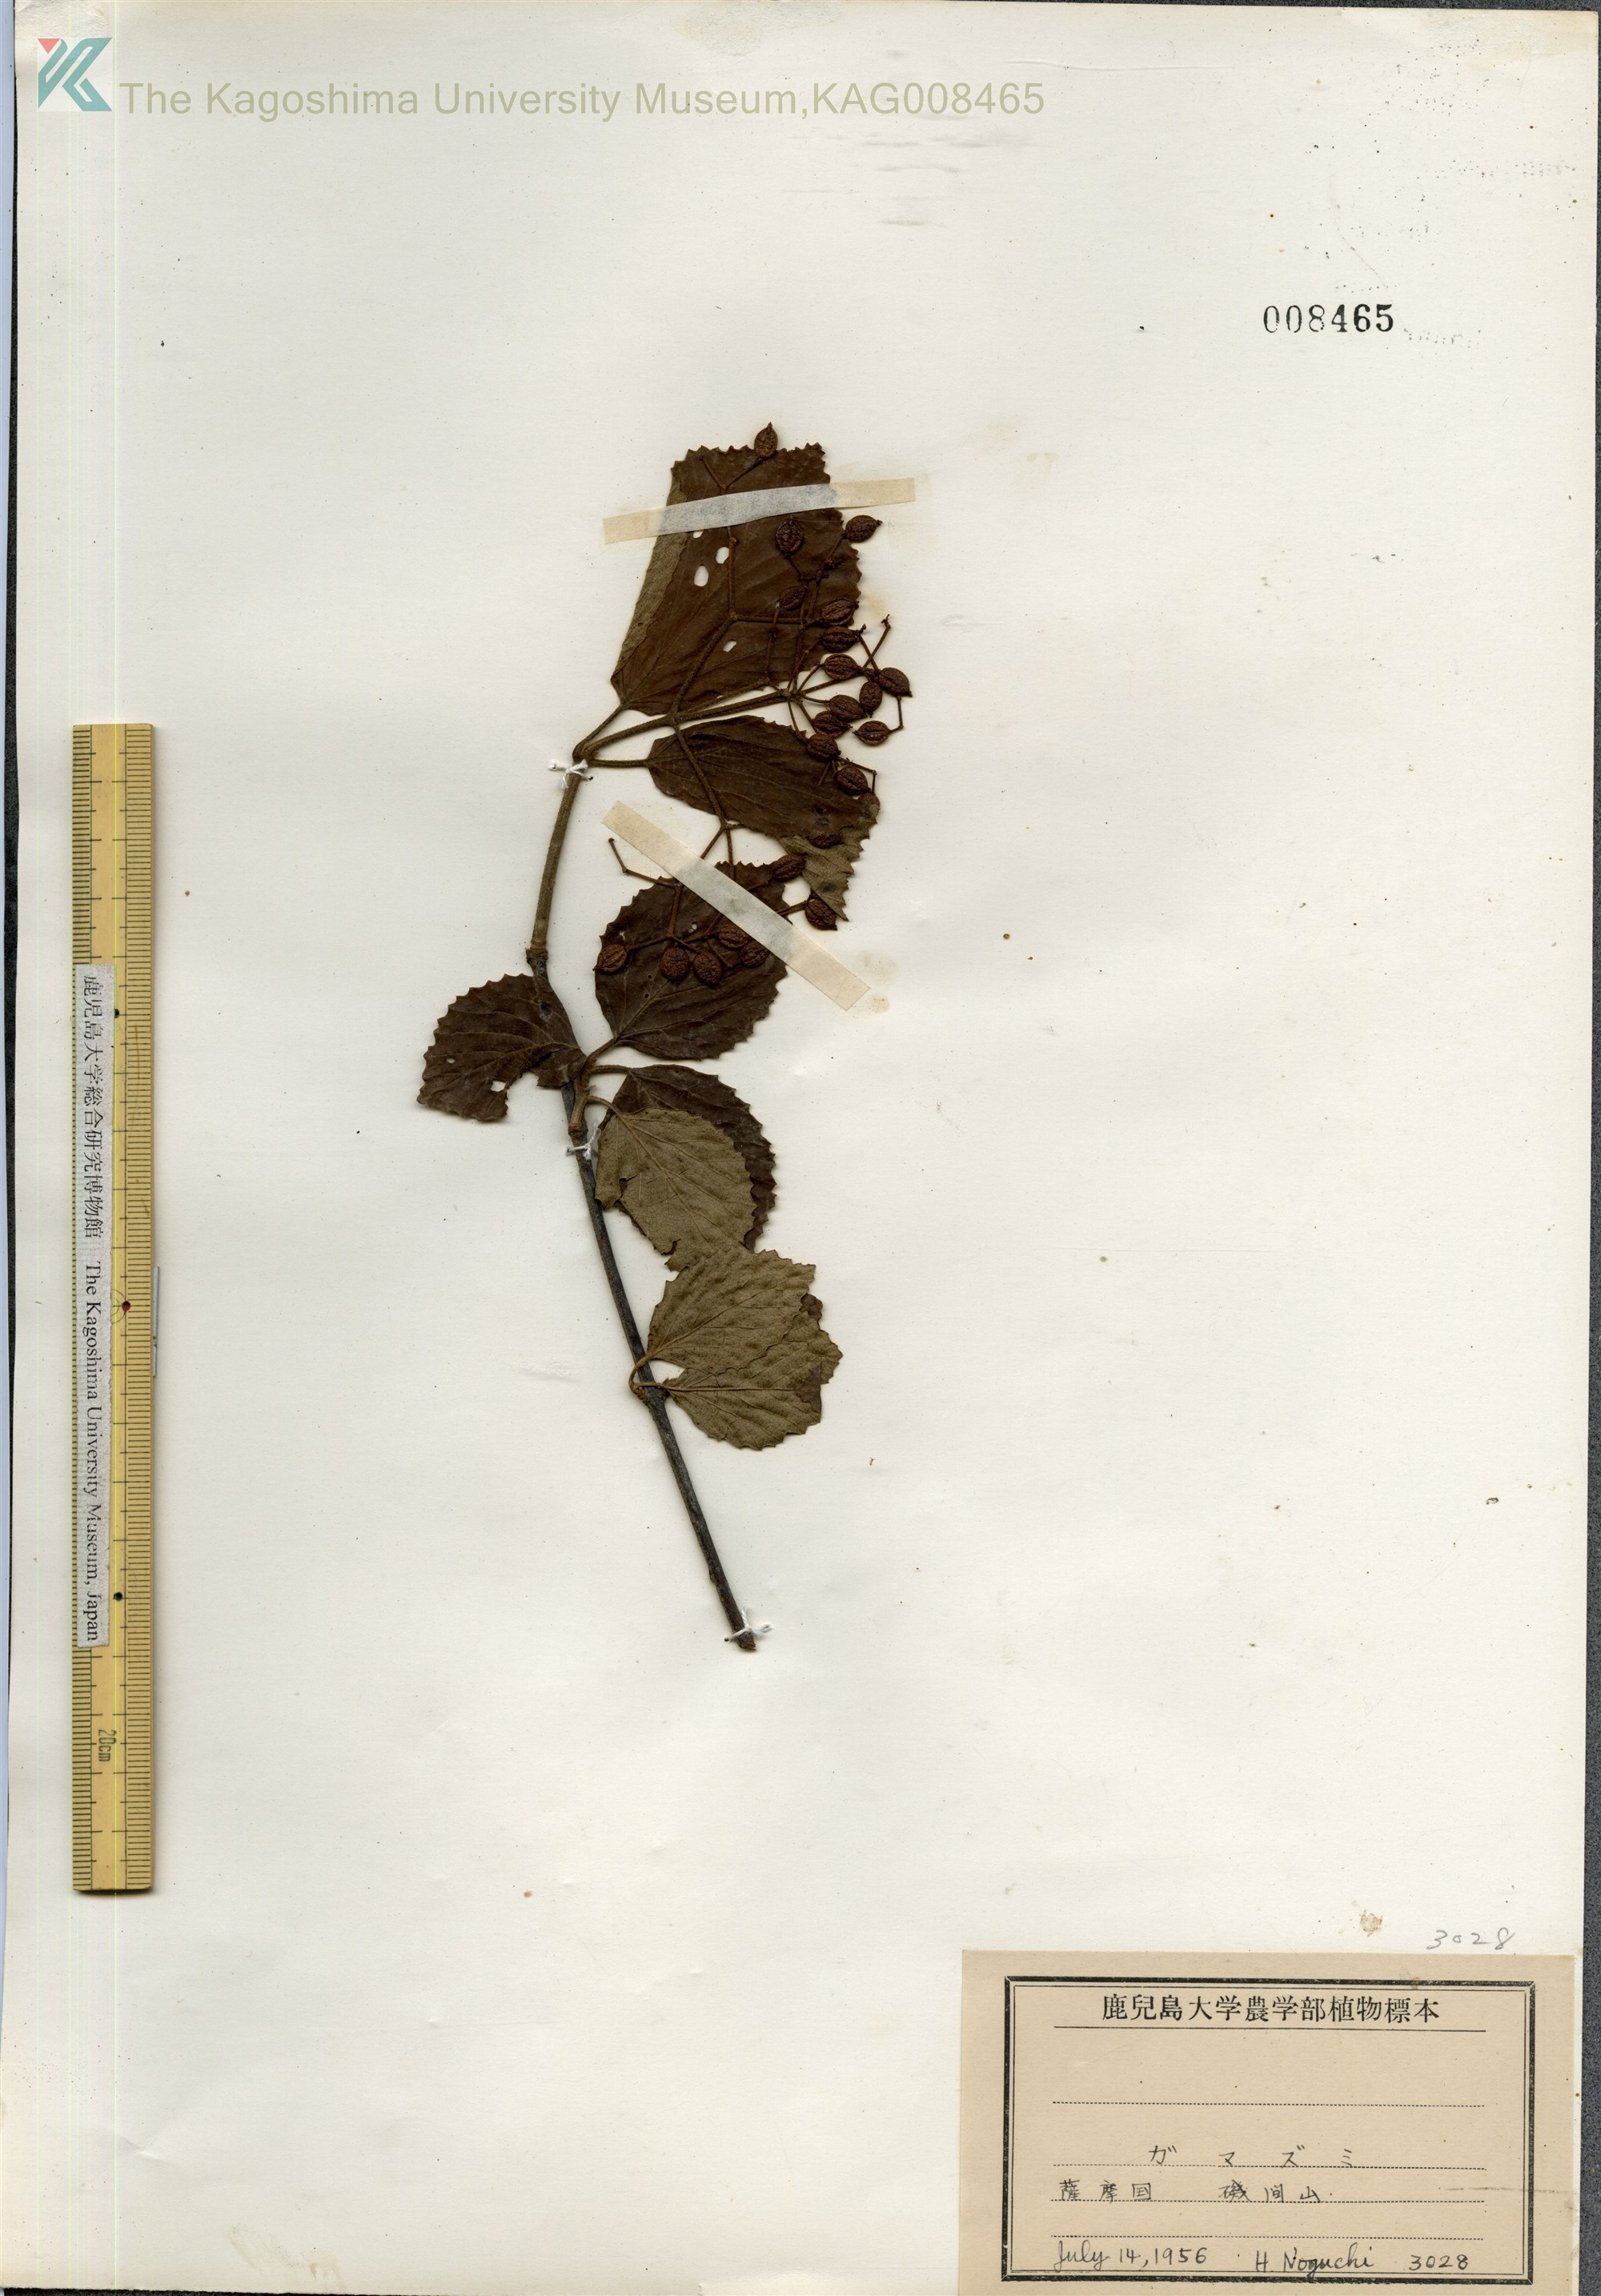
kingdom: Plantae
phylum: Tracheophyta
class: Magnoliopsida
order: Dipsacales
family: Viburnaceae
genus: Viburnum
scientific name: Viburnum dilatatum
